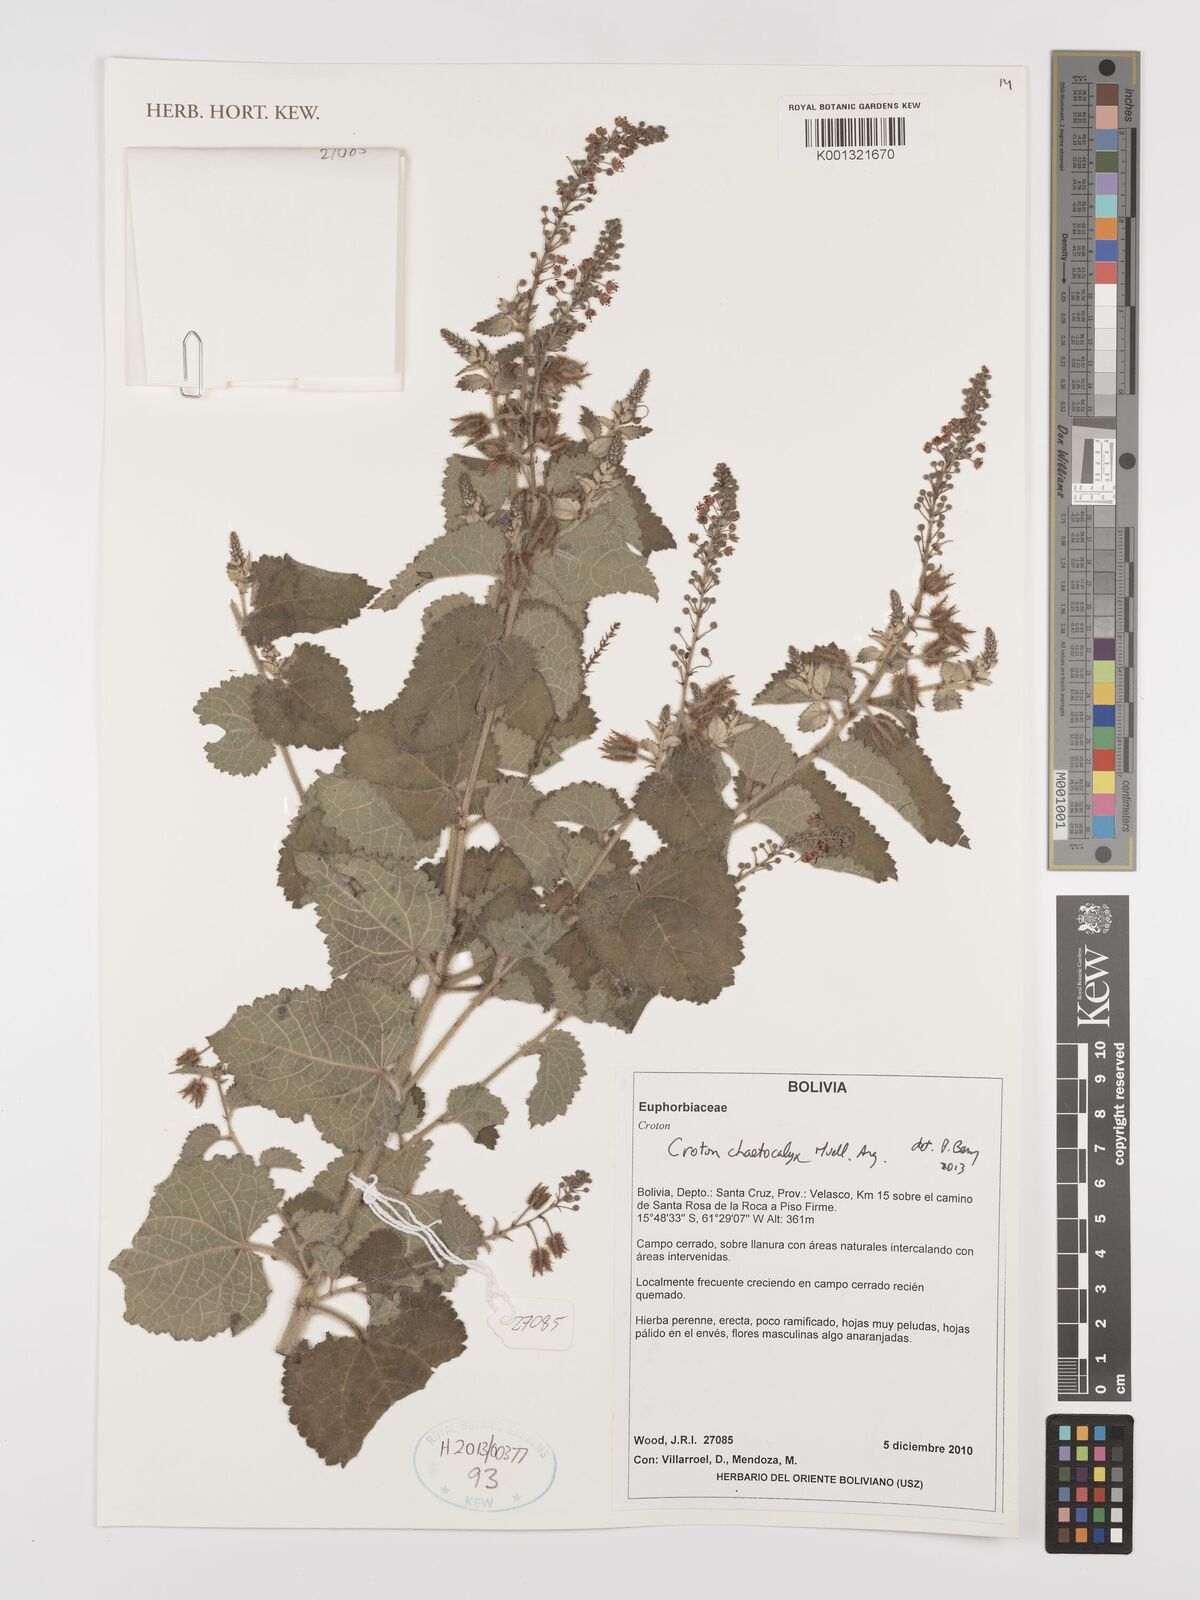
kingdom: Plantae
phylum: Tracheophyta
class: Magnoliopsida
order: Malpighiales
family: Euphorbiaceae
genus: Croton
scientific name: Croton catariae
